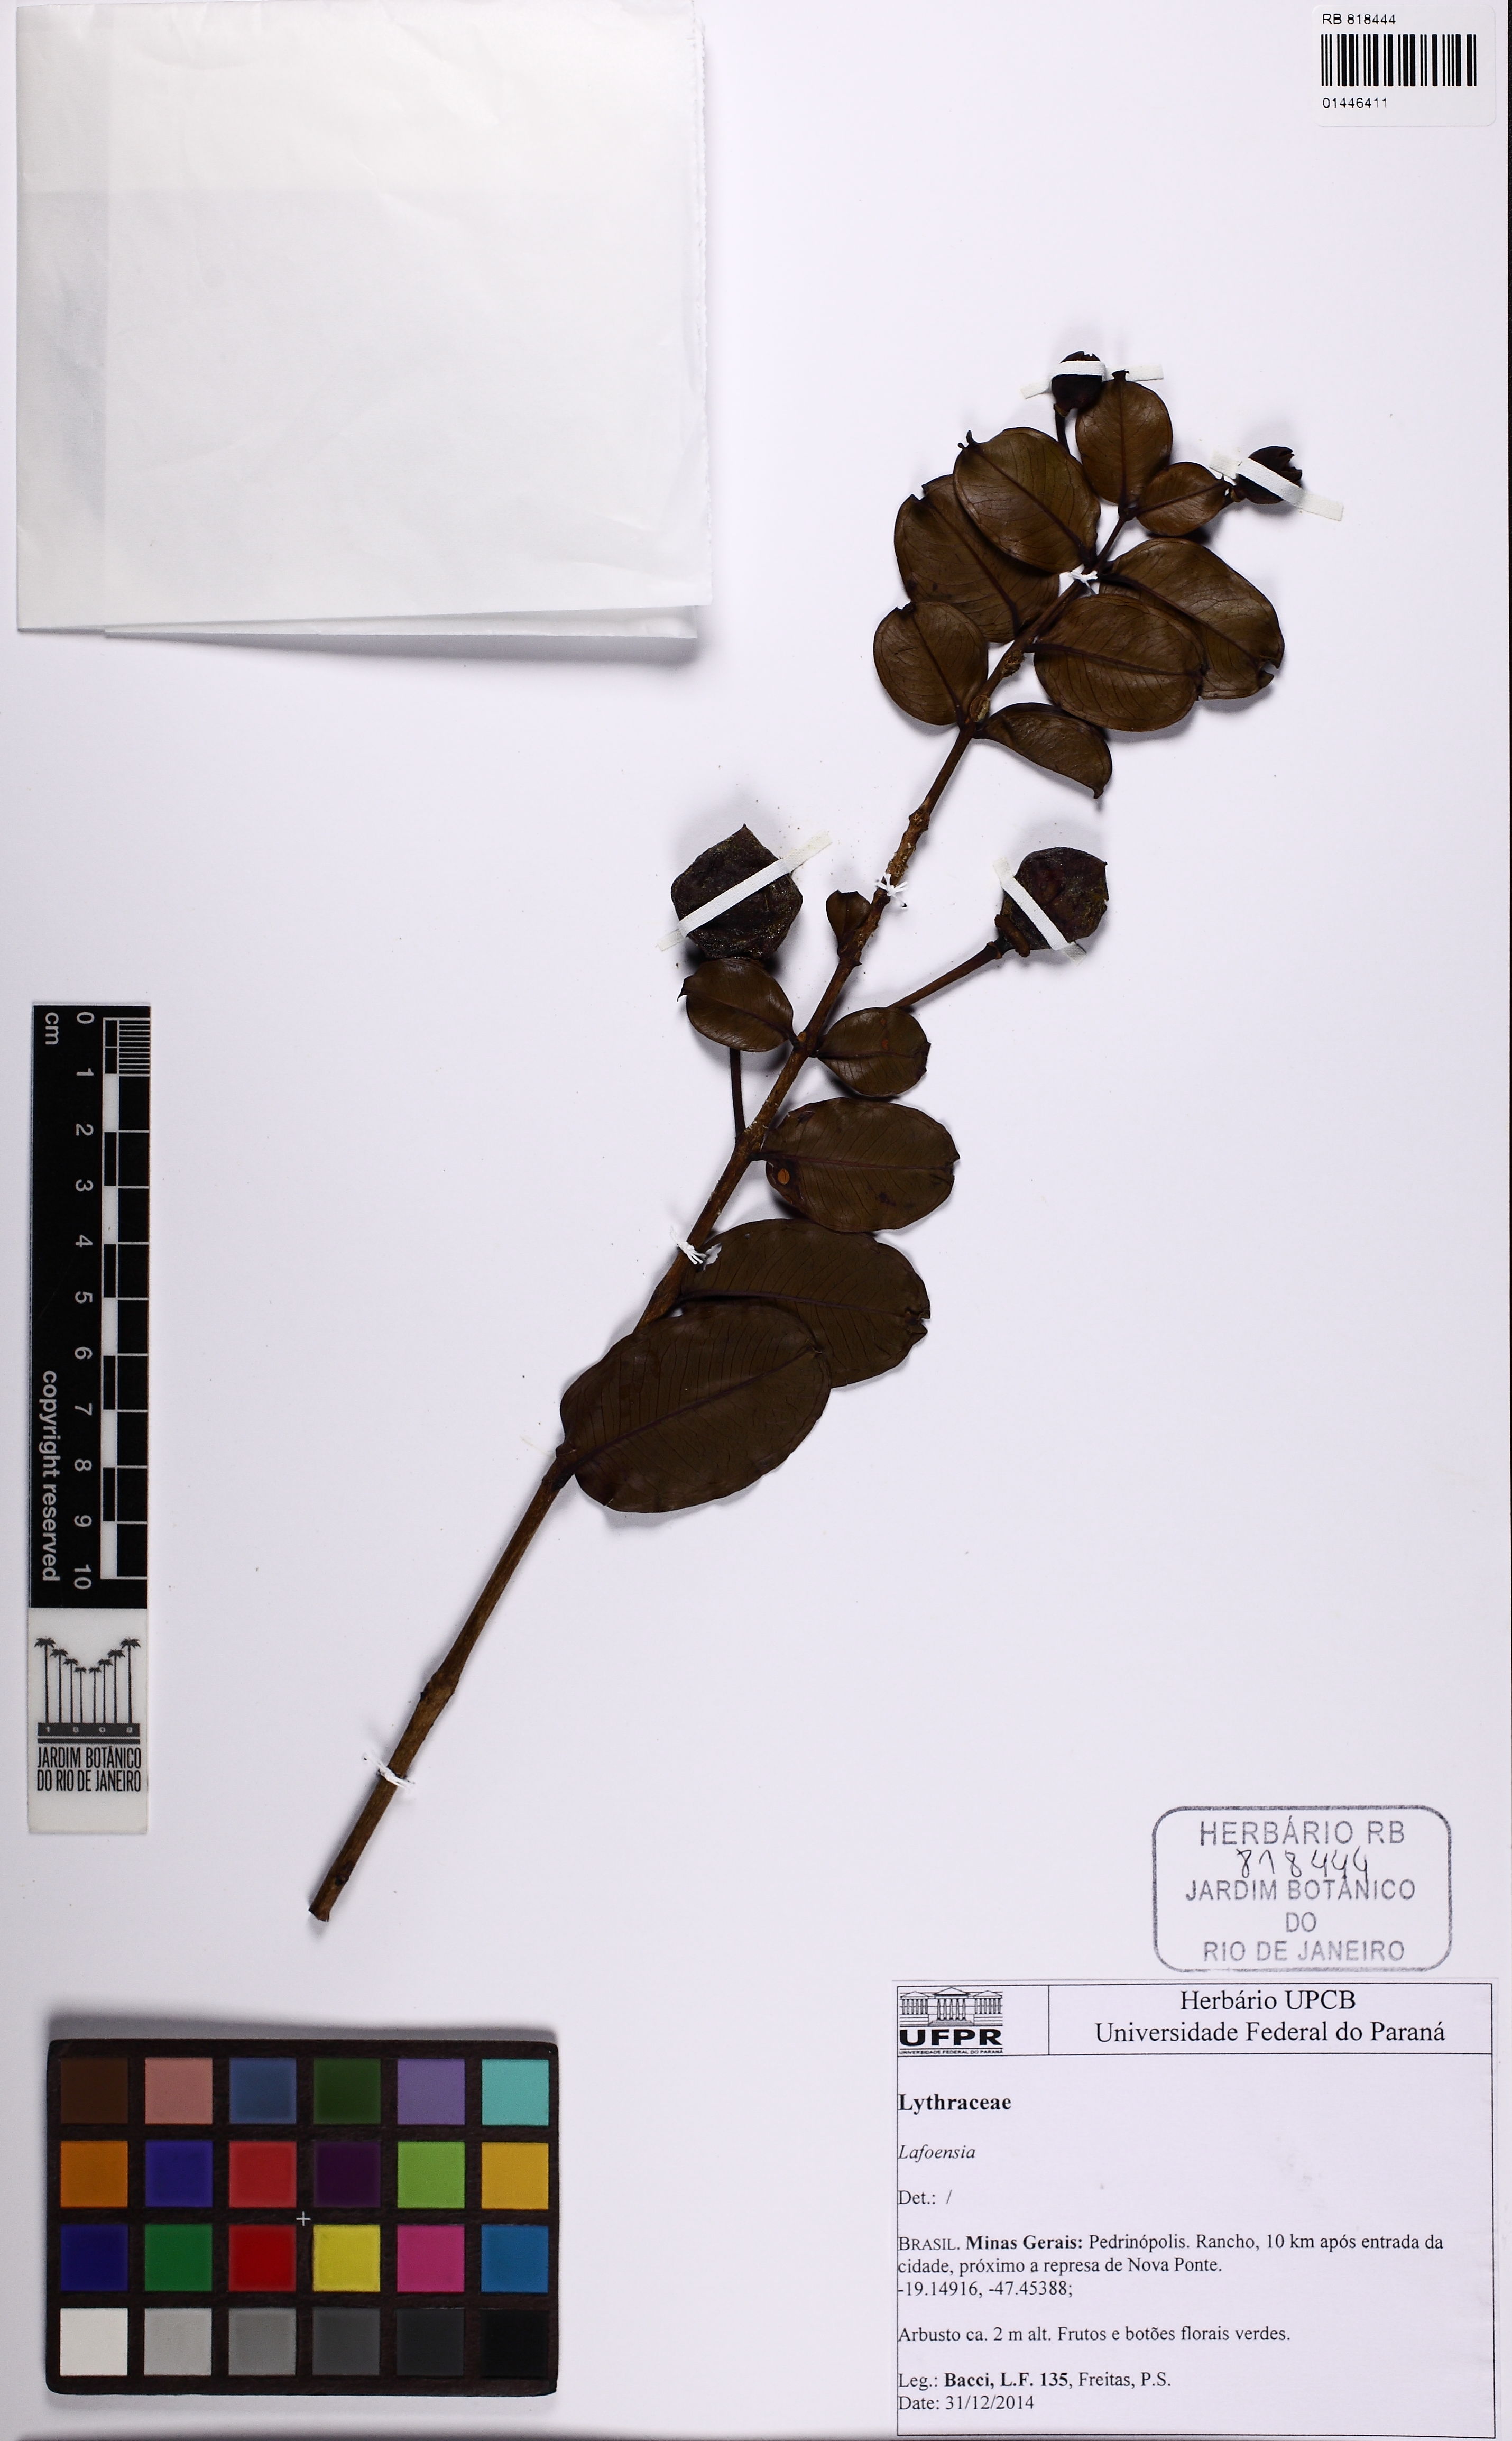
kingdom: Plantae
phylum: Tracheophyta
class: Magnoliopsida
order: Myrtales
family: Lythraceae
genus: Lafoensia
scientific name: Lafoensia
